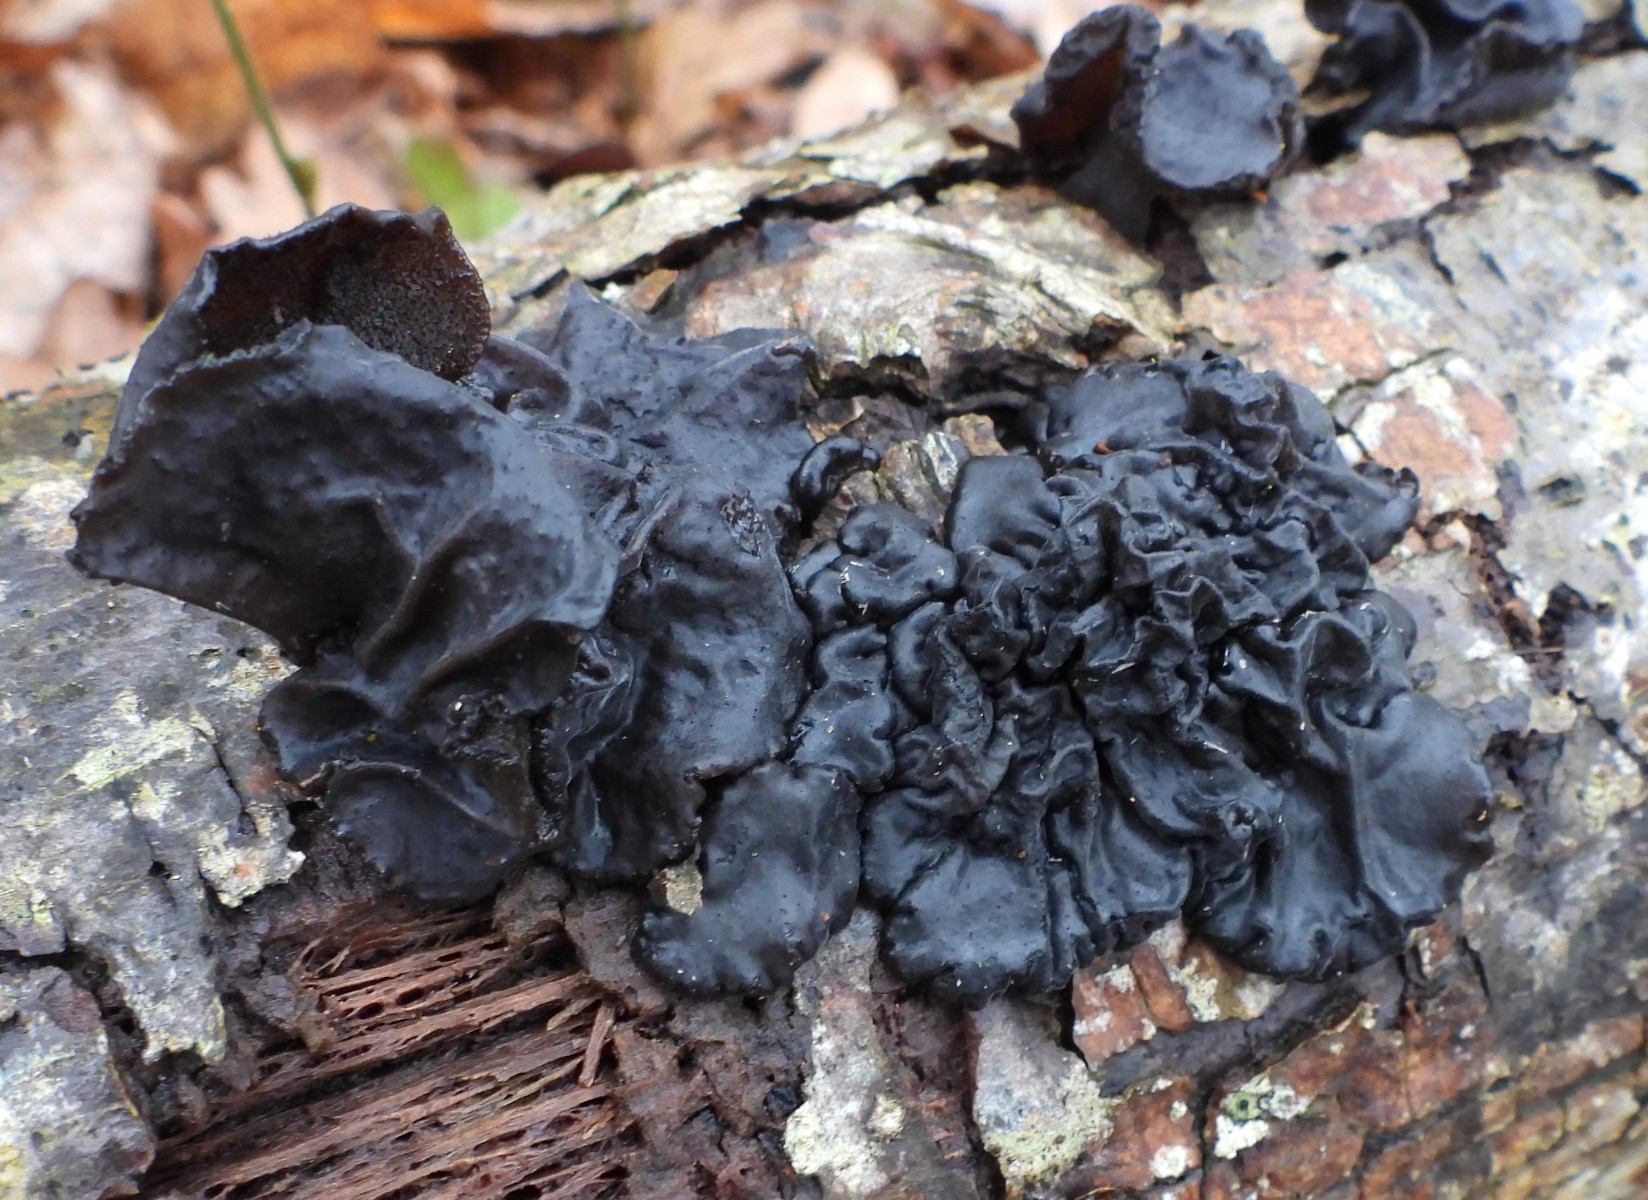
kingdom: Fungi
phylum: Basidiomycota
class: Agaricomycetes
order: Auriculariales
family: Auriculariaceae
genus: Exidia
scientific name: Exidia glandulosa
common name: ege-bævretop
